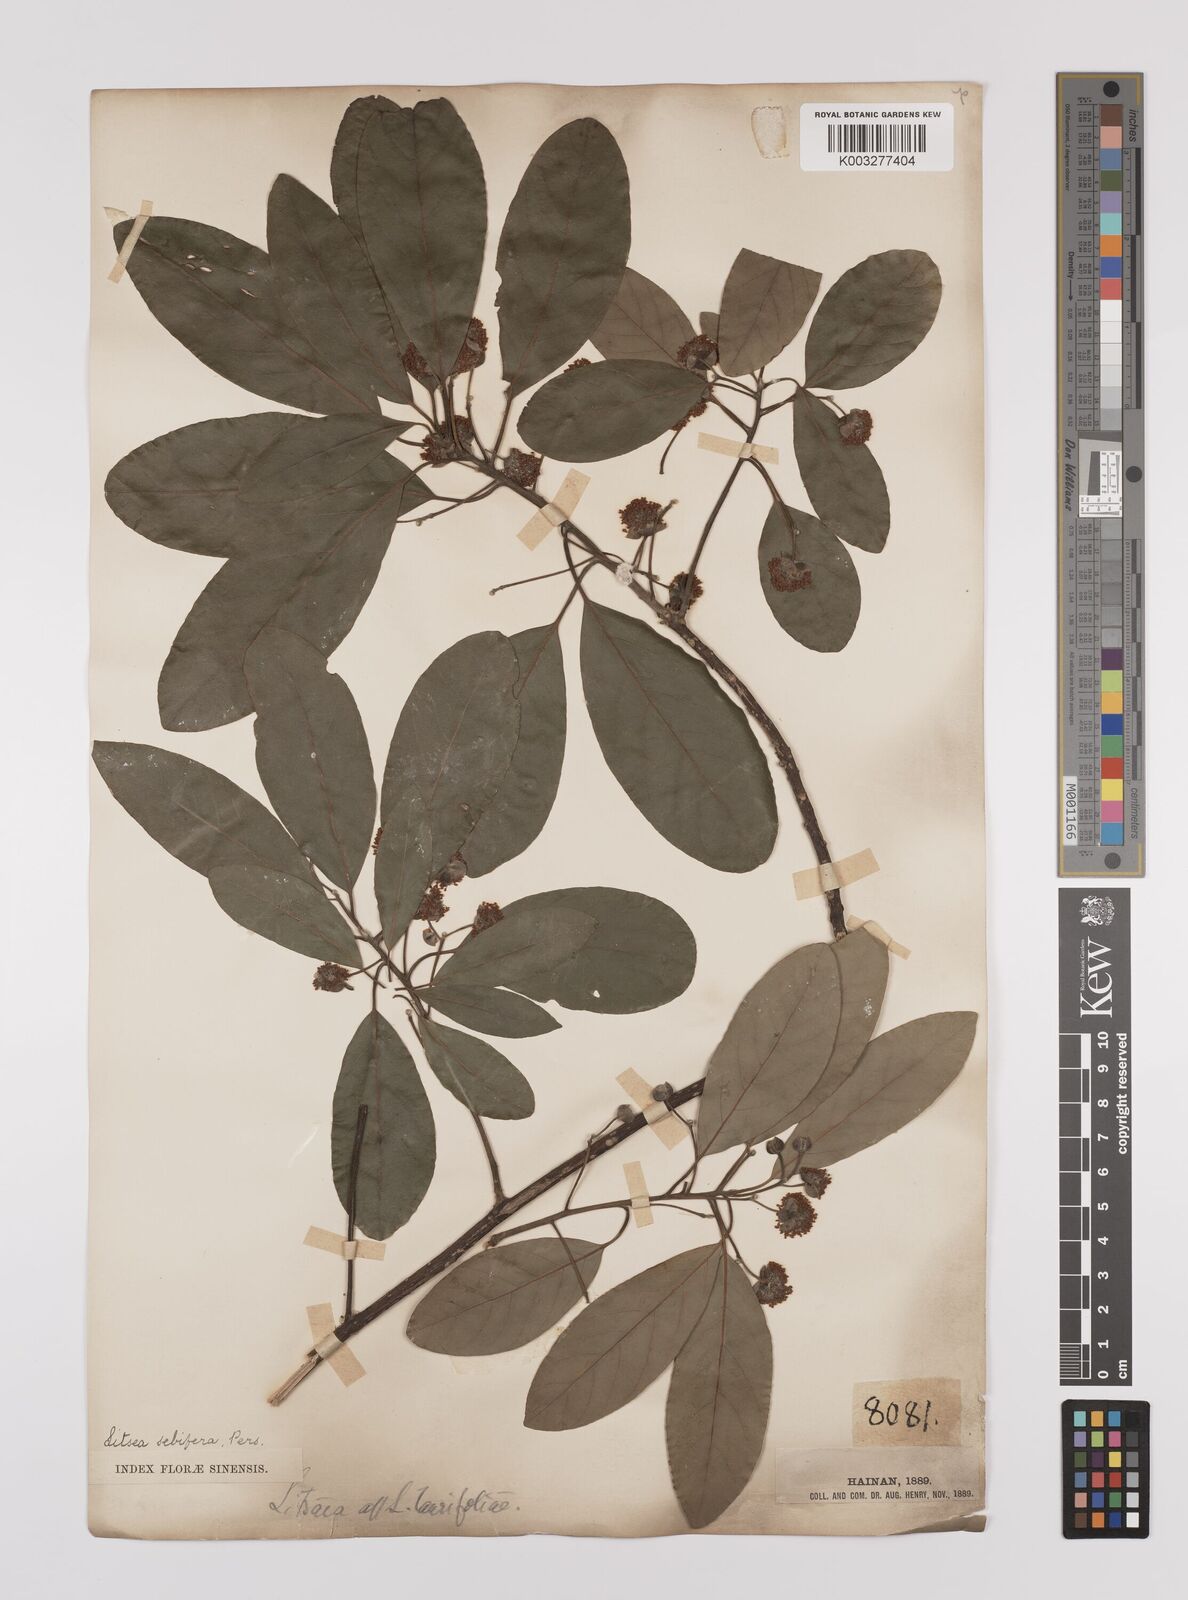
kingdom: Plantae
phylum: Tracheophyta
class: Magnoliopsida
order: Laurales
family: Lauraceae
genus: Litsea
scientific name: Litsea glutinosa
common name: Indian-laurel
